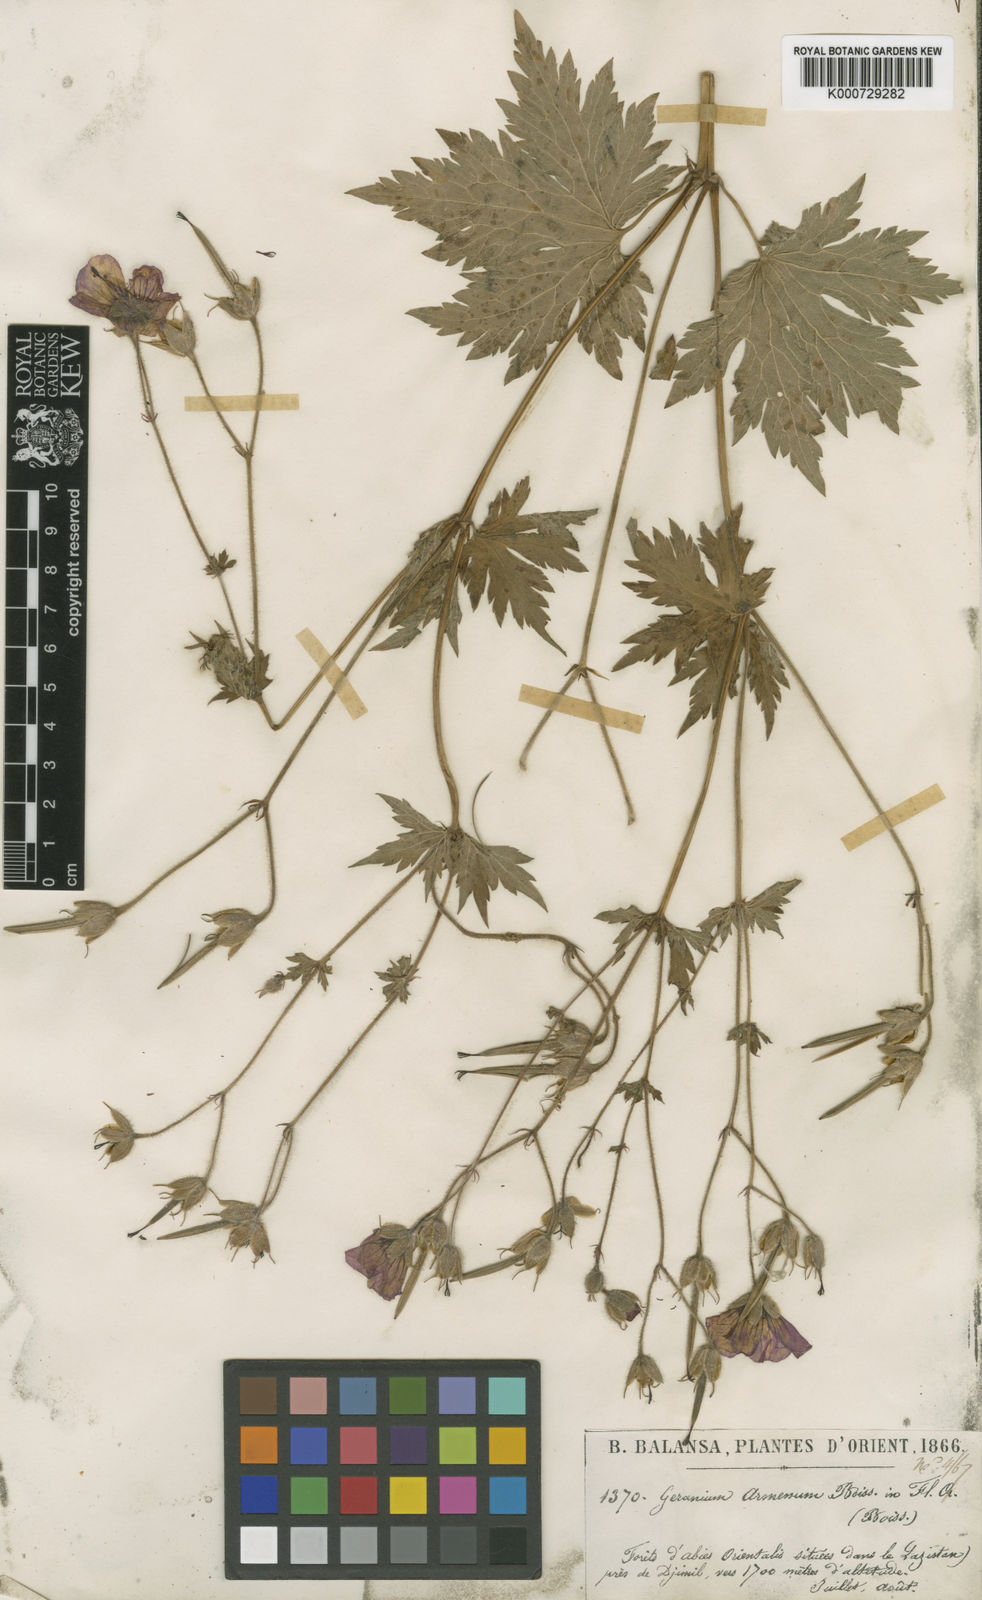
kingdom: Plantae
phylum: Tracheophyta
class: Magnoliopsida
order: Geraniales
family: Geraniaceae
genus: Geranium
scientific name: Geranium psilostemon
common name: Armenian crane's-bill
